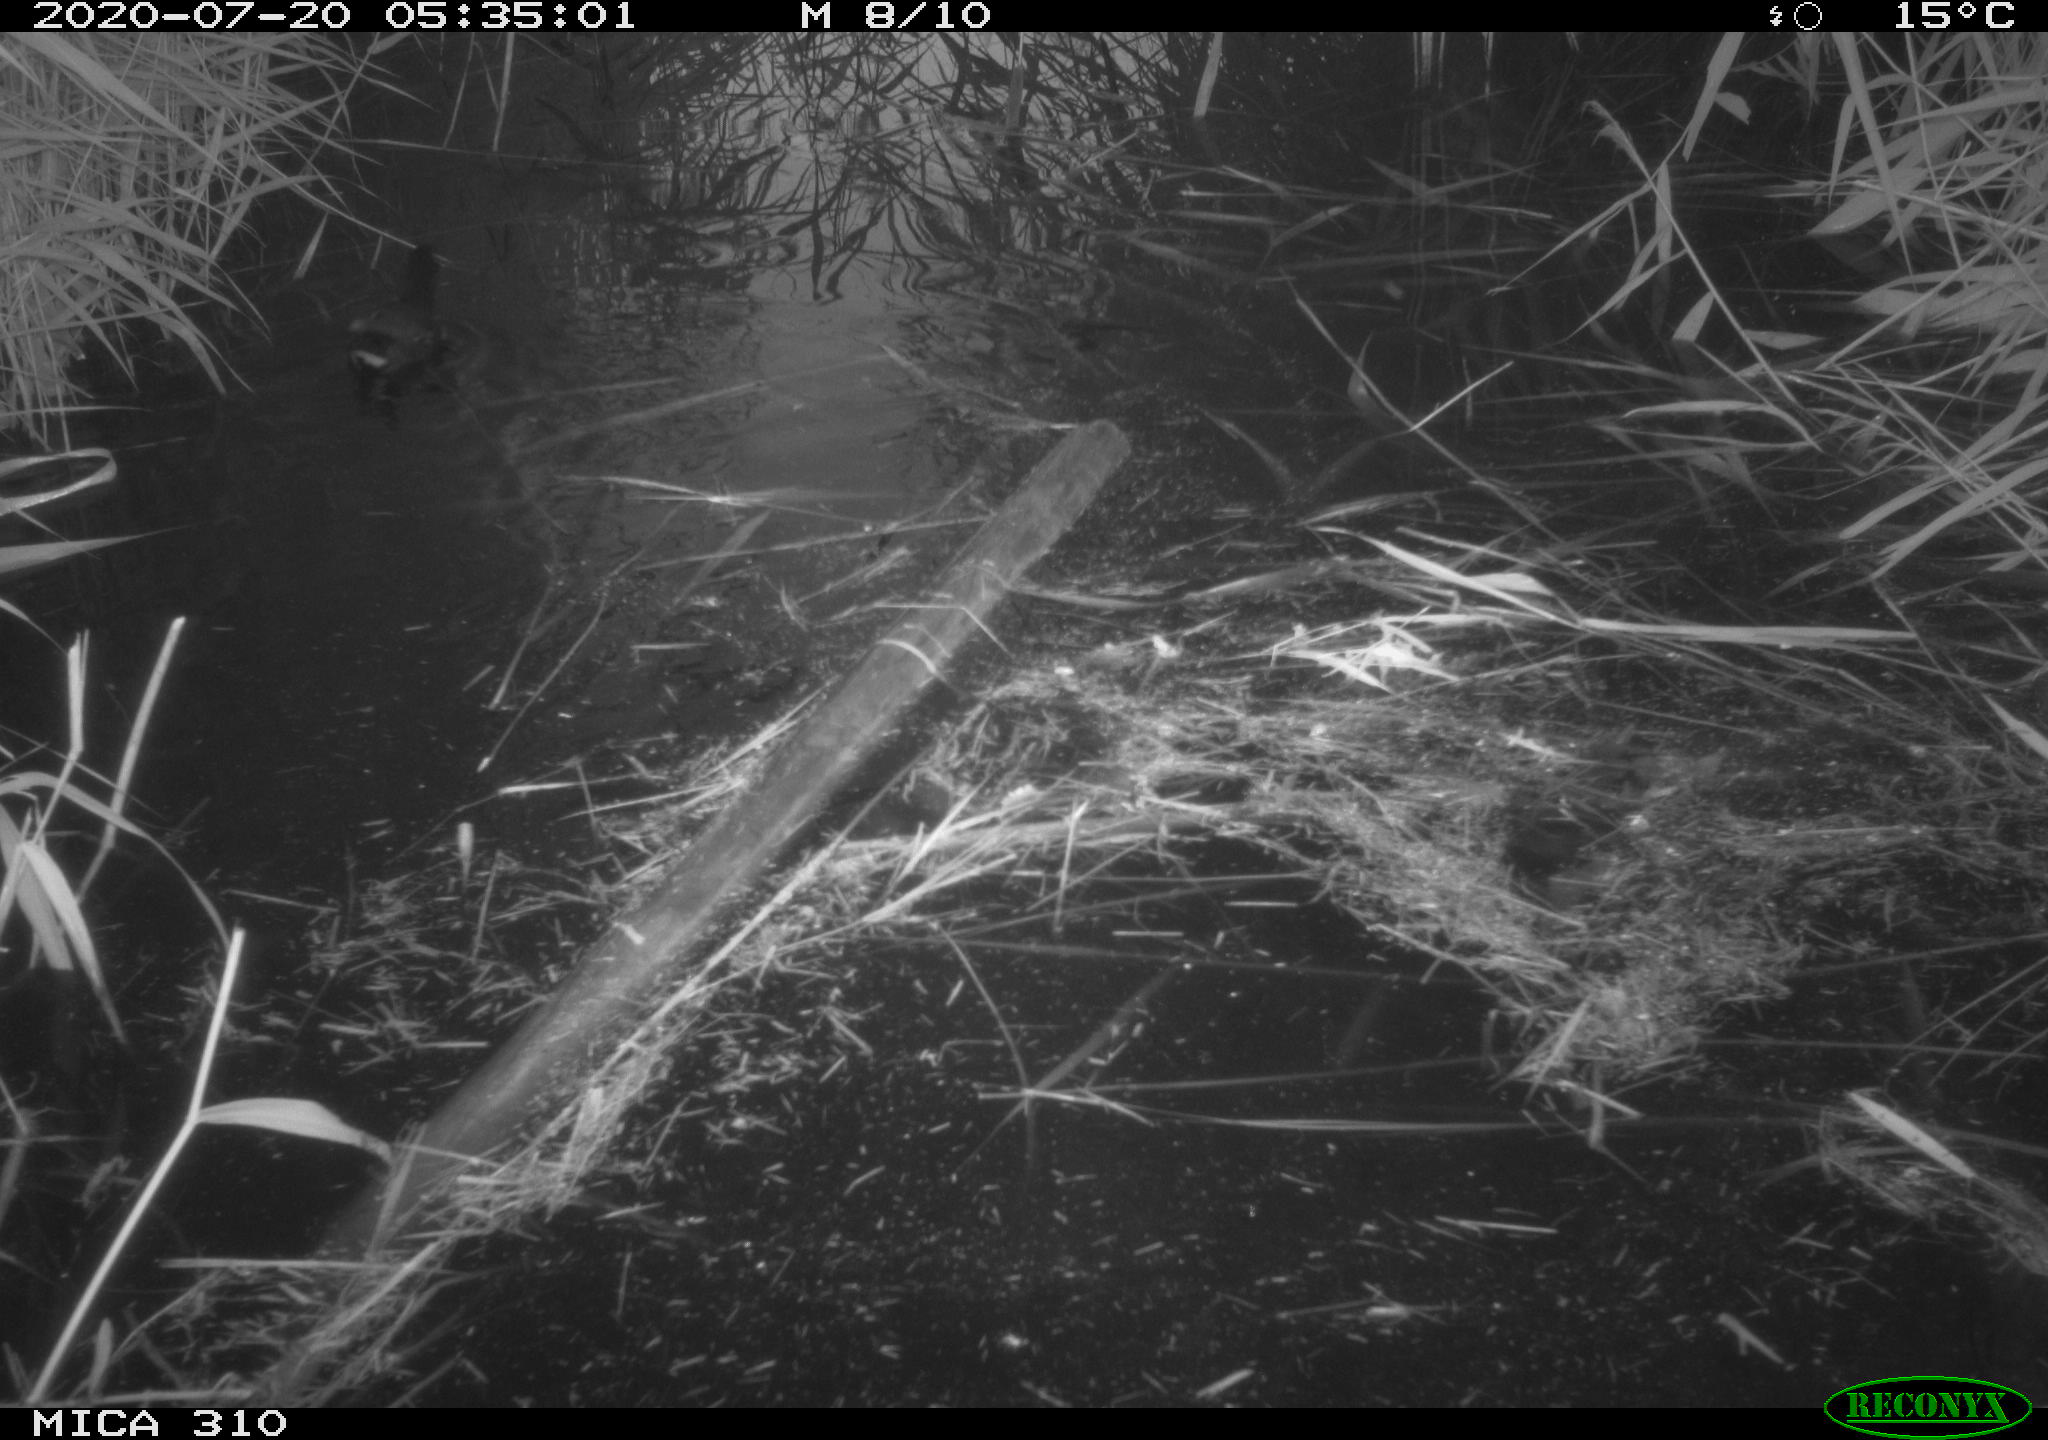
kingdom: Animalia
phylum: Chordata
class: Aves
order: Gruiformes
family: Rallidae
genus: Gallinula
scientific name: Gallinula chloropus
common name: Common moorhen
